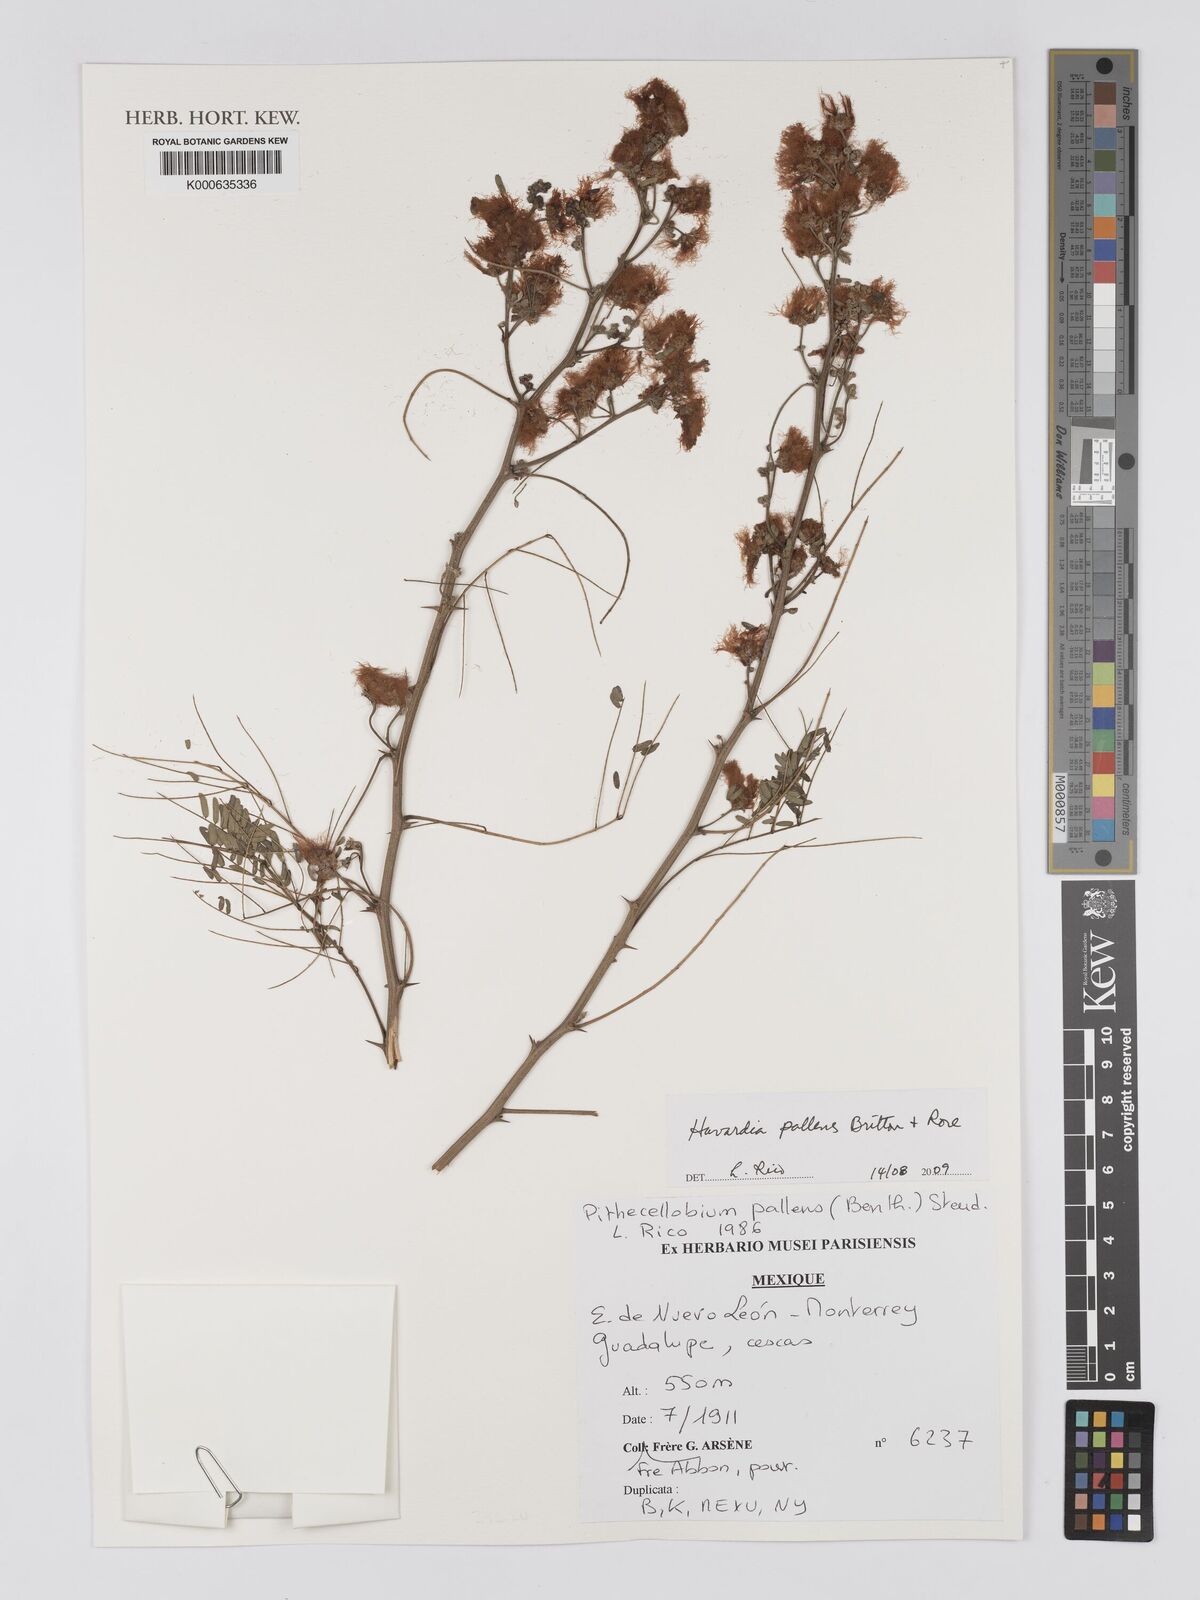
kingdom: Plantae
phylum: Tracheophyta
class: Magnoliopsida
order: Fabales
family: Fabaceae
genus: Havardia
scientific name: Havardia pallens
